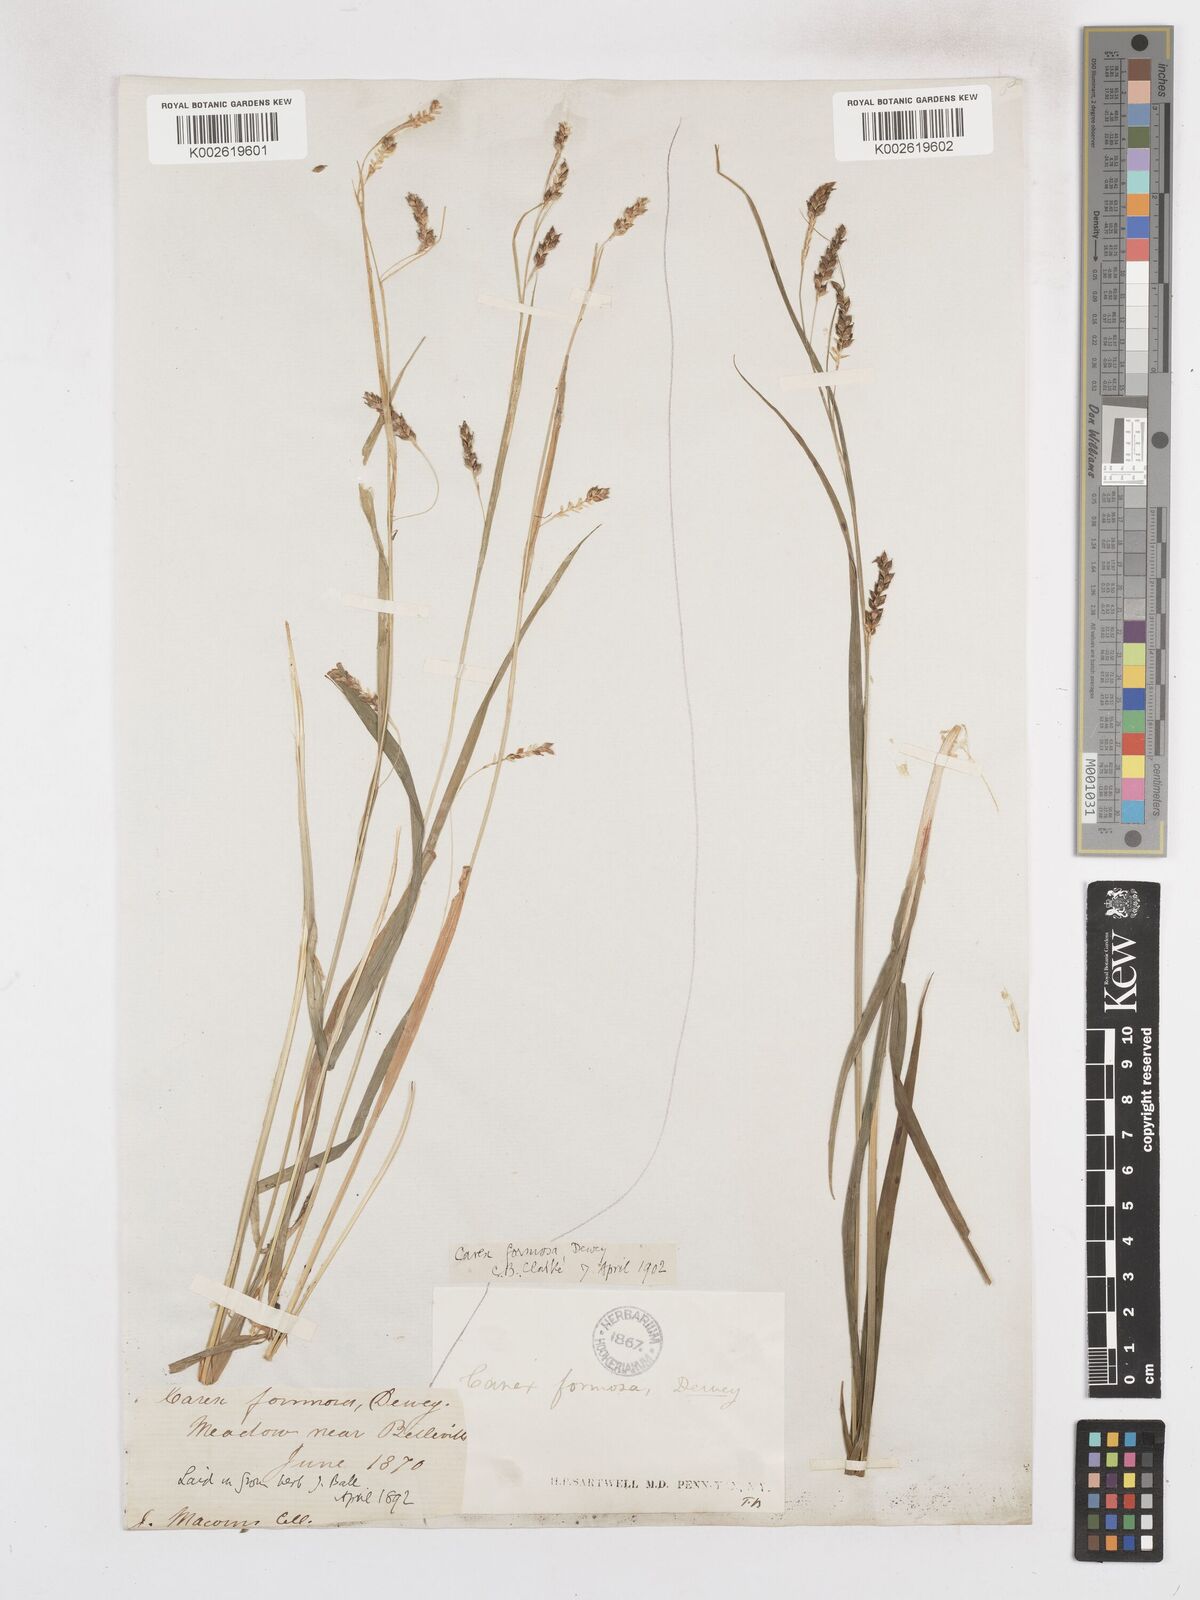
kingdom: Plantae
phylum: Tracheophyta
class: Liliopsida
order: Poales
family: Cyperaceae
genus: Carex
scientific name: Carex formosa
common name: Awnless graceful sedge
